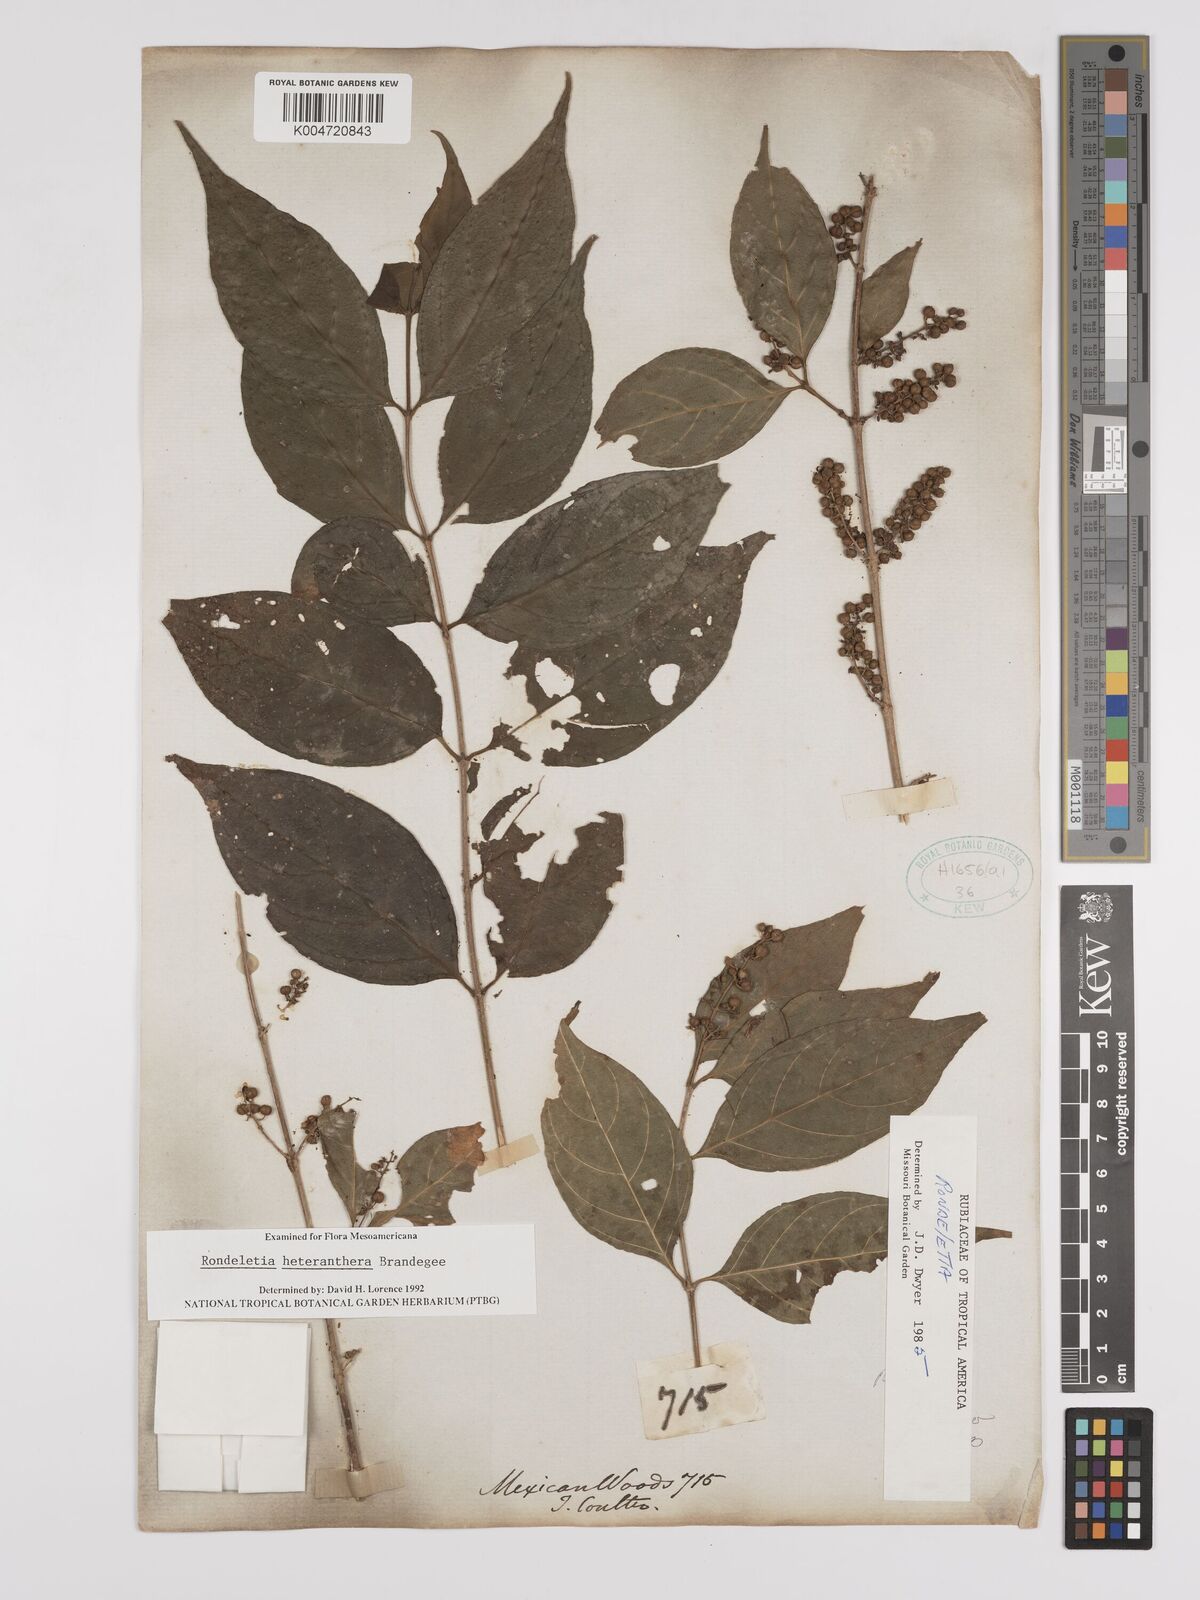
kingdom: Plantae
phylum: Tracheophyta
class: Magnoliopsida
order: Gentianales
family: Rubiaceae
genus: Arachnothryx
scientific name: Arachnothryx heteranthera
